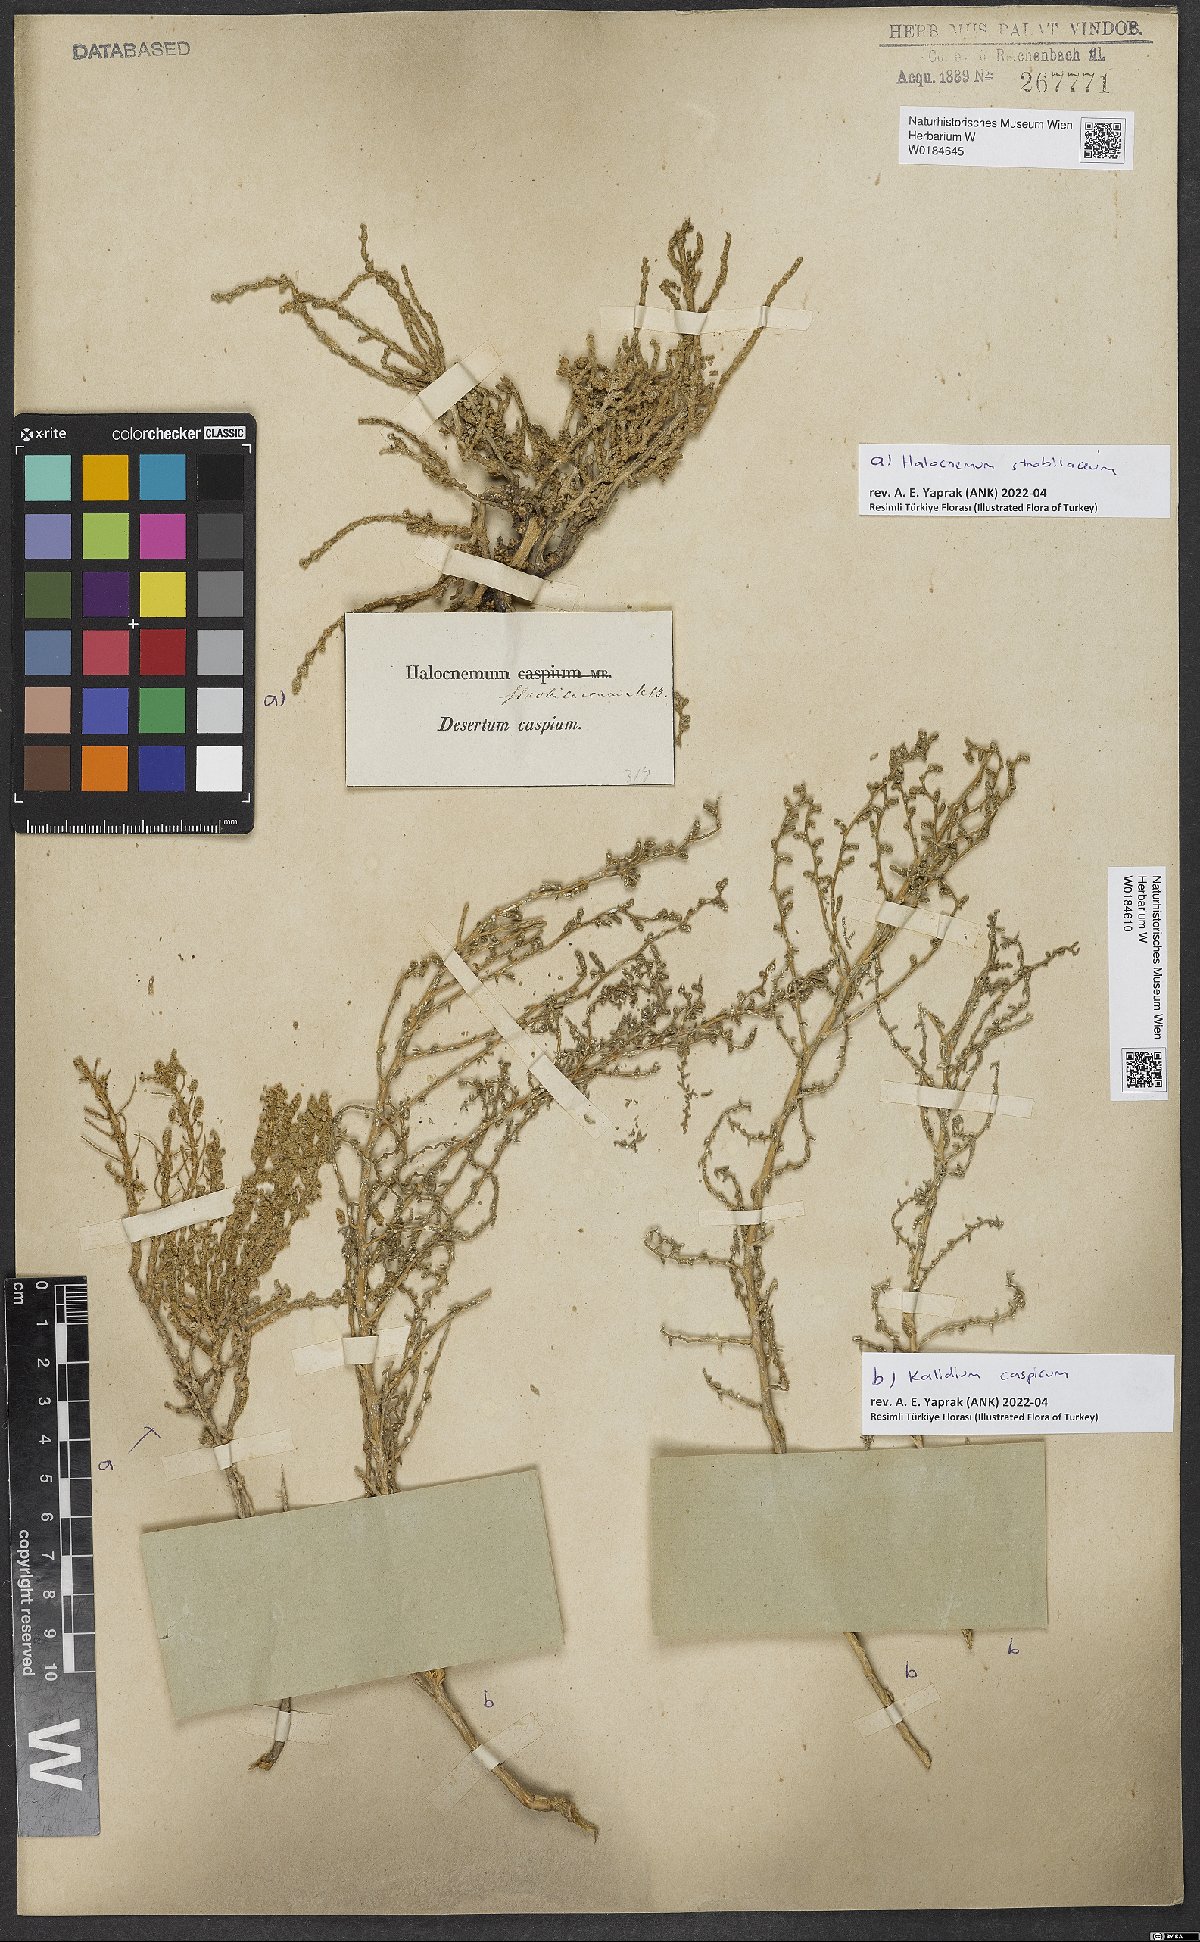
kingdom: Plantae
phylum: Tracheophyta
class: Magnoliopsida
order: Caryophyllales
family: Amaranthaceae
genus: Halocnemum
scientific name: Halocnemum strobilaceum
